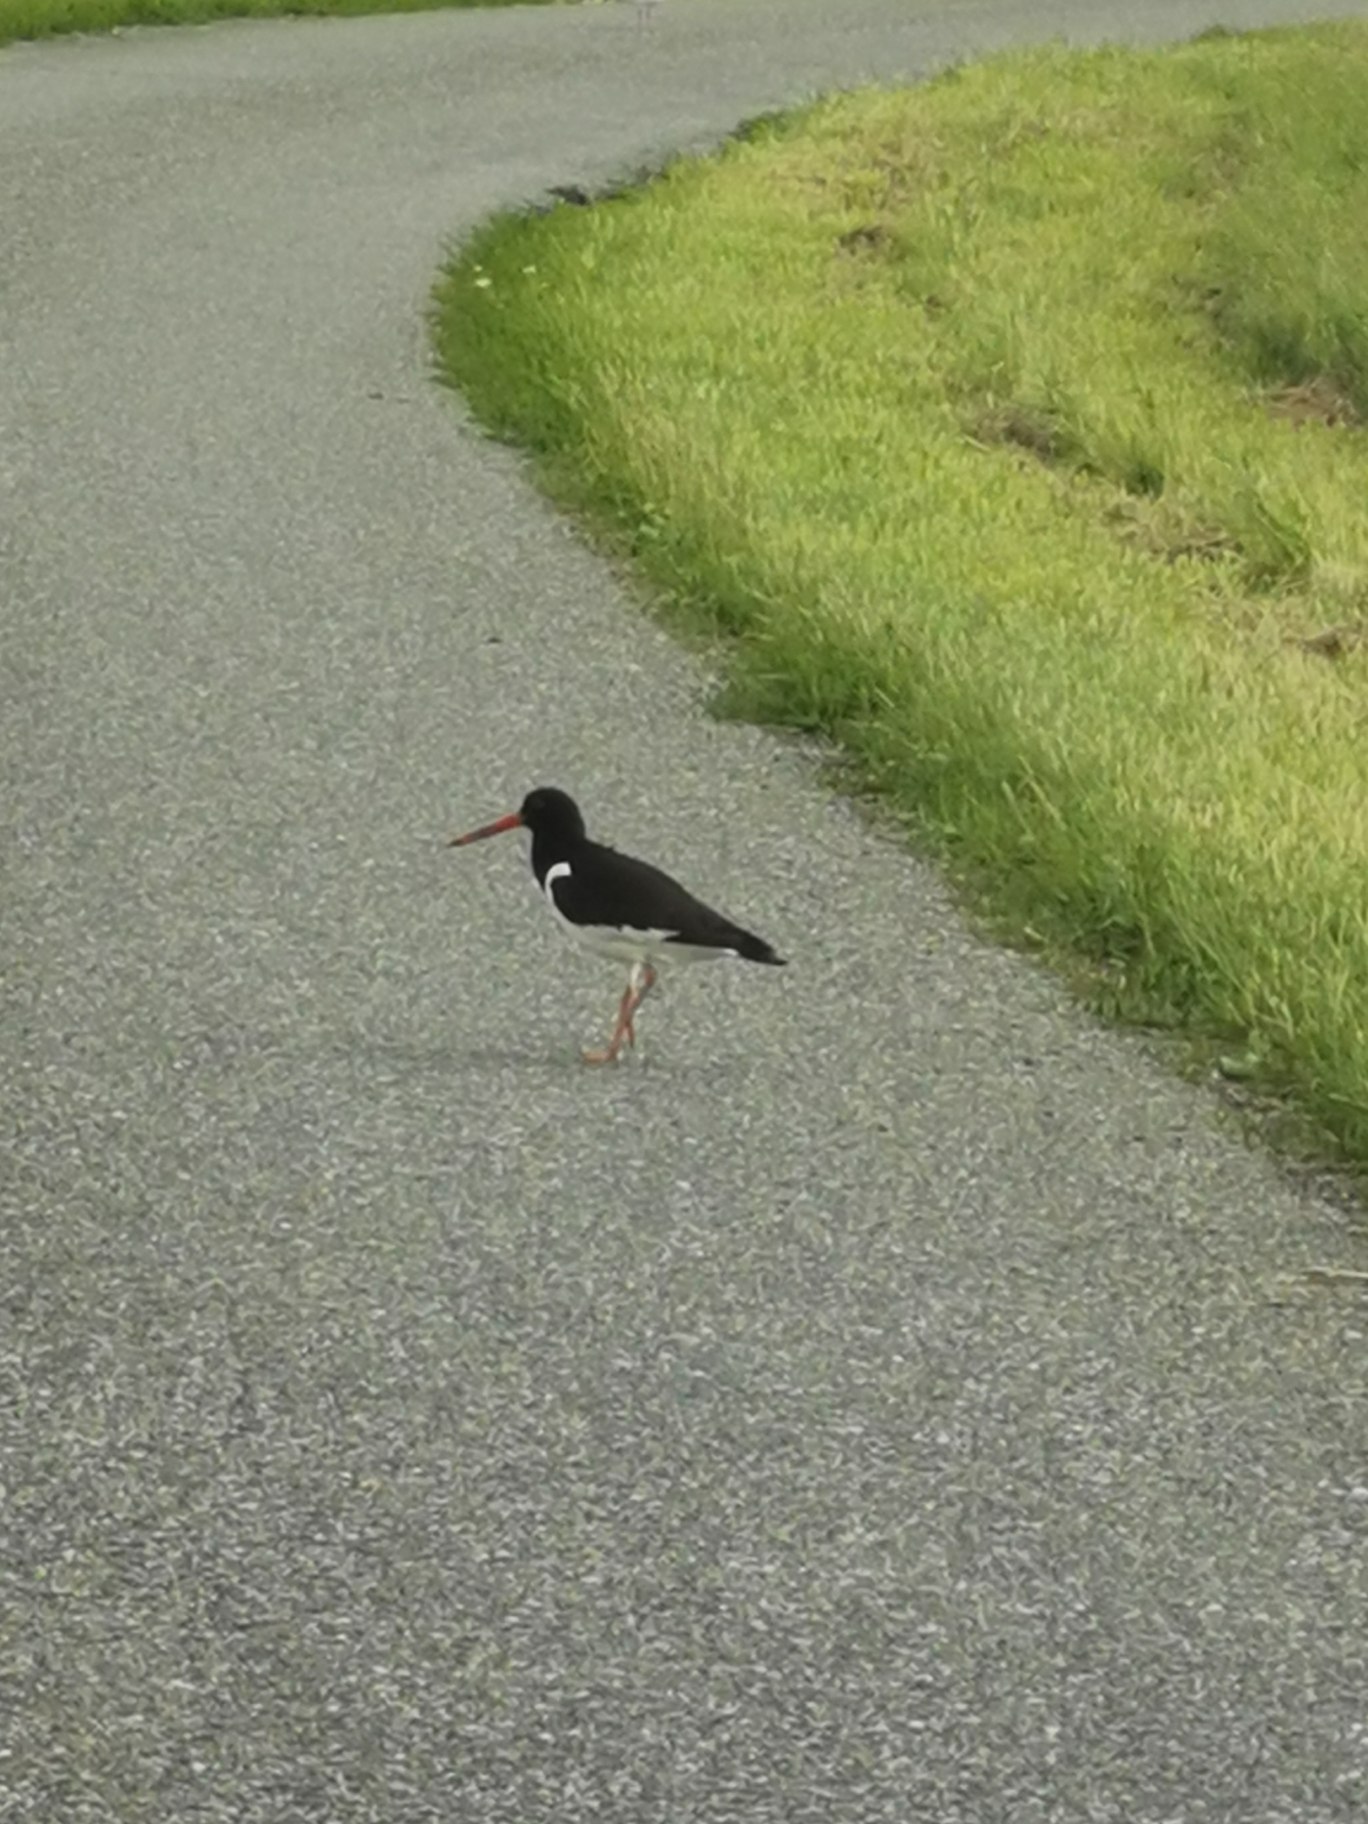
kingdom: Animalia
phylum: Chordata
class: Aves
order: Charadriiformes
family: Haematopodidae
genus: Haematopus
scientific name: Haematopus ostralegus
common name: Strandskade
